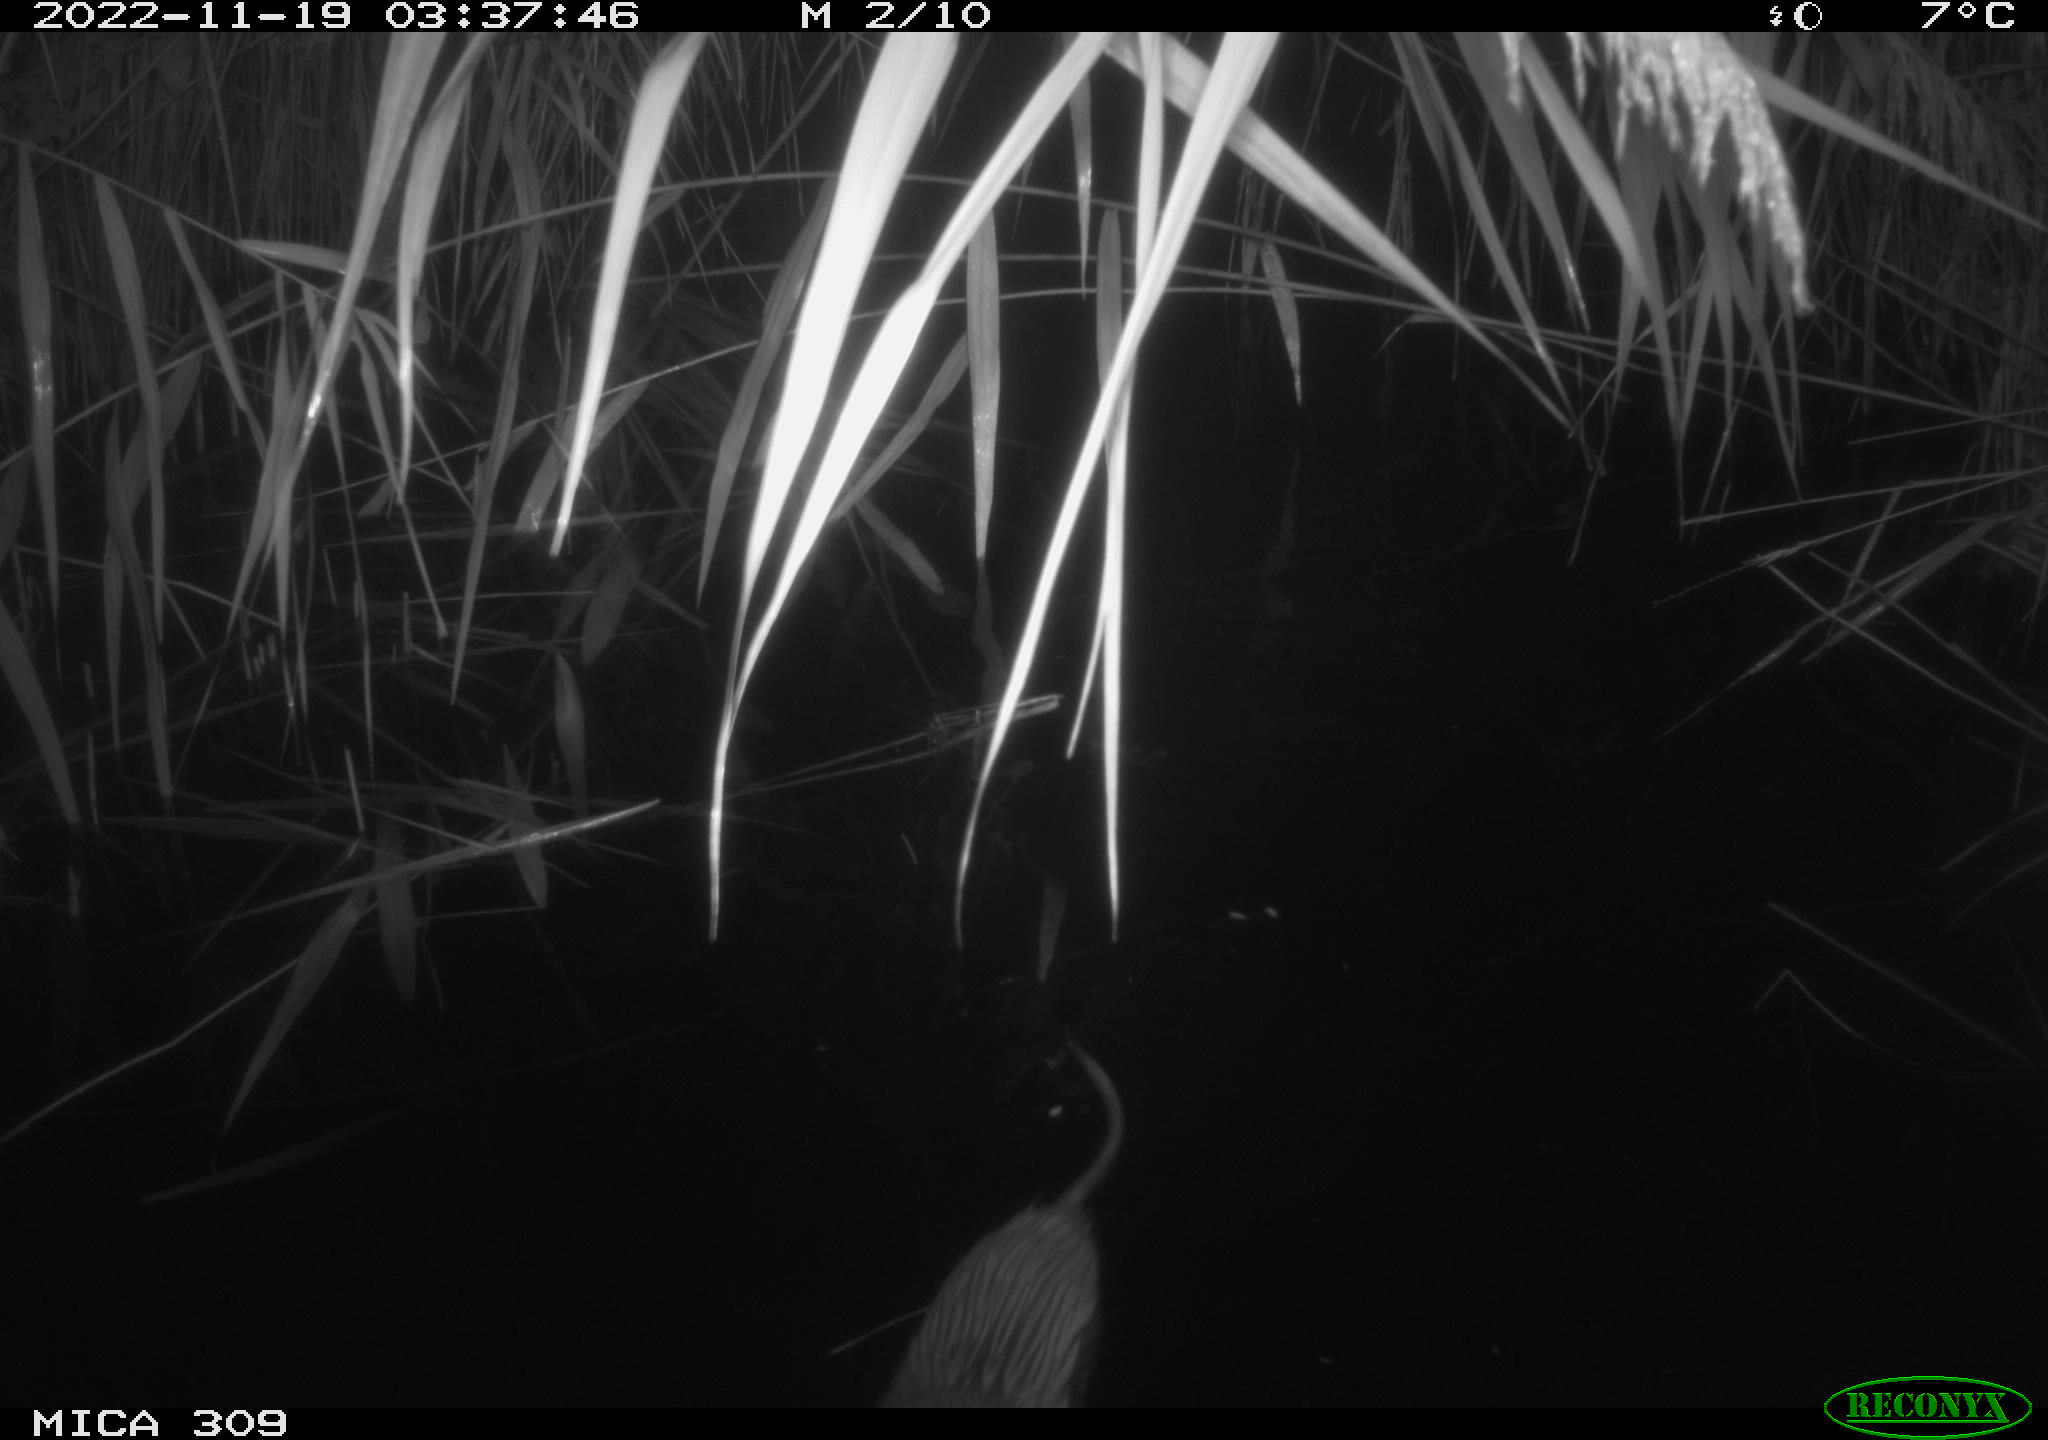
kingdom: Animalia
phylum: Chordata
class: Mammalia
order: Rodentia
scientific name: Rodentia
